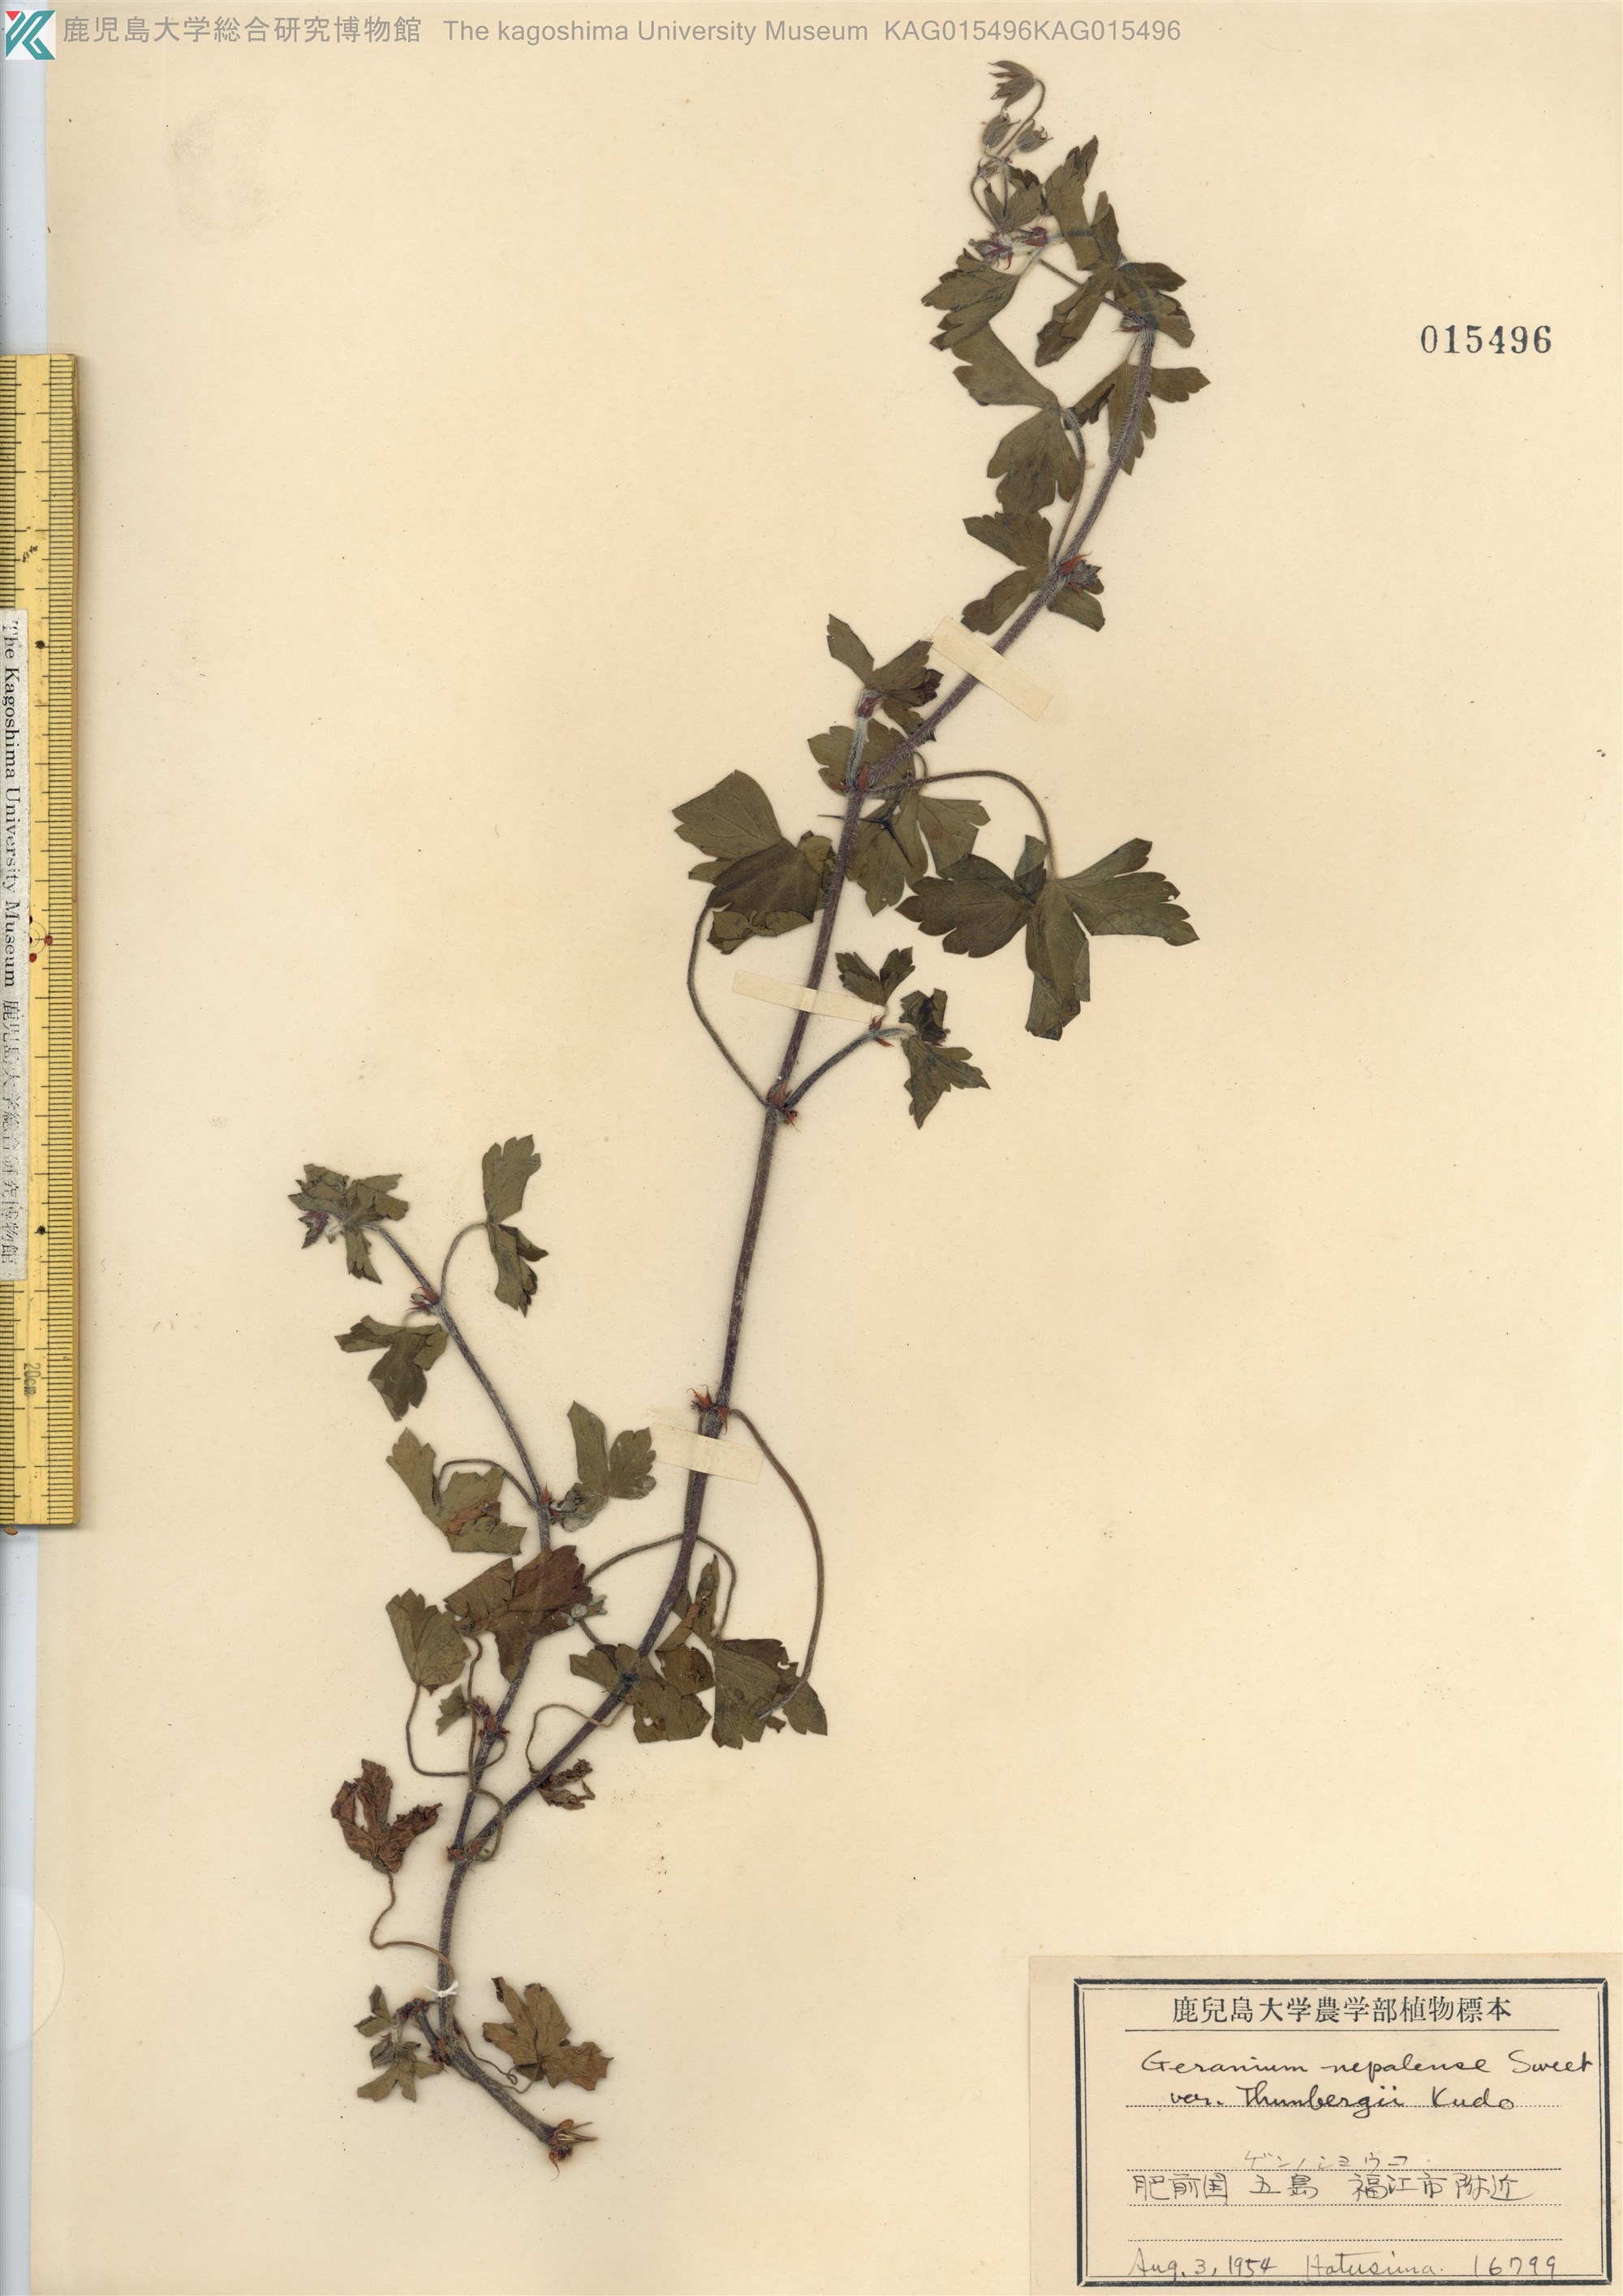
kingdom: Plantae
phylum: Tracheophyta
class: Magnoliopsida
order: Geraniales
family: Geraniaceae
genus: Geranium
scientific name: Geranium thunbergii
